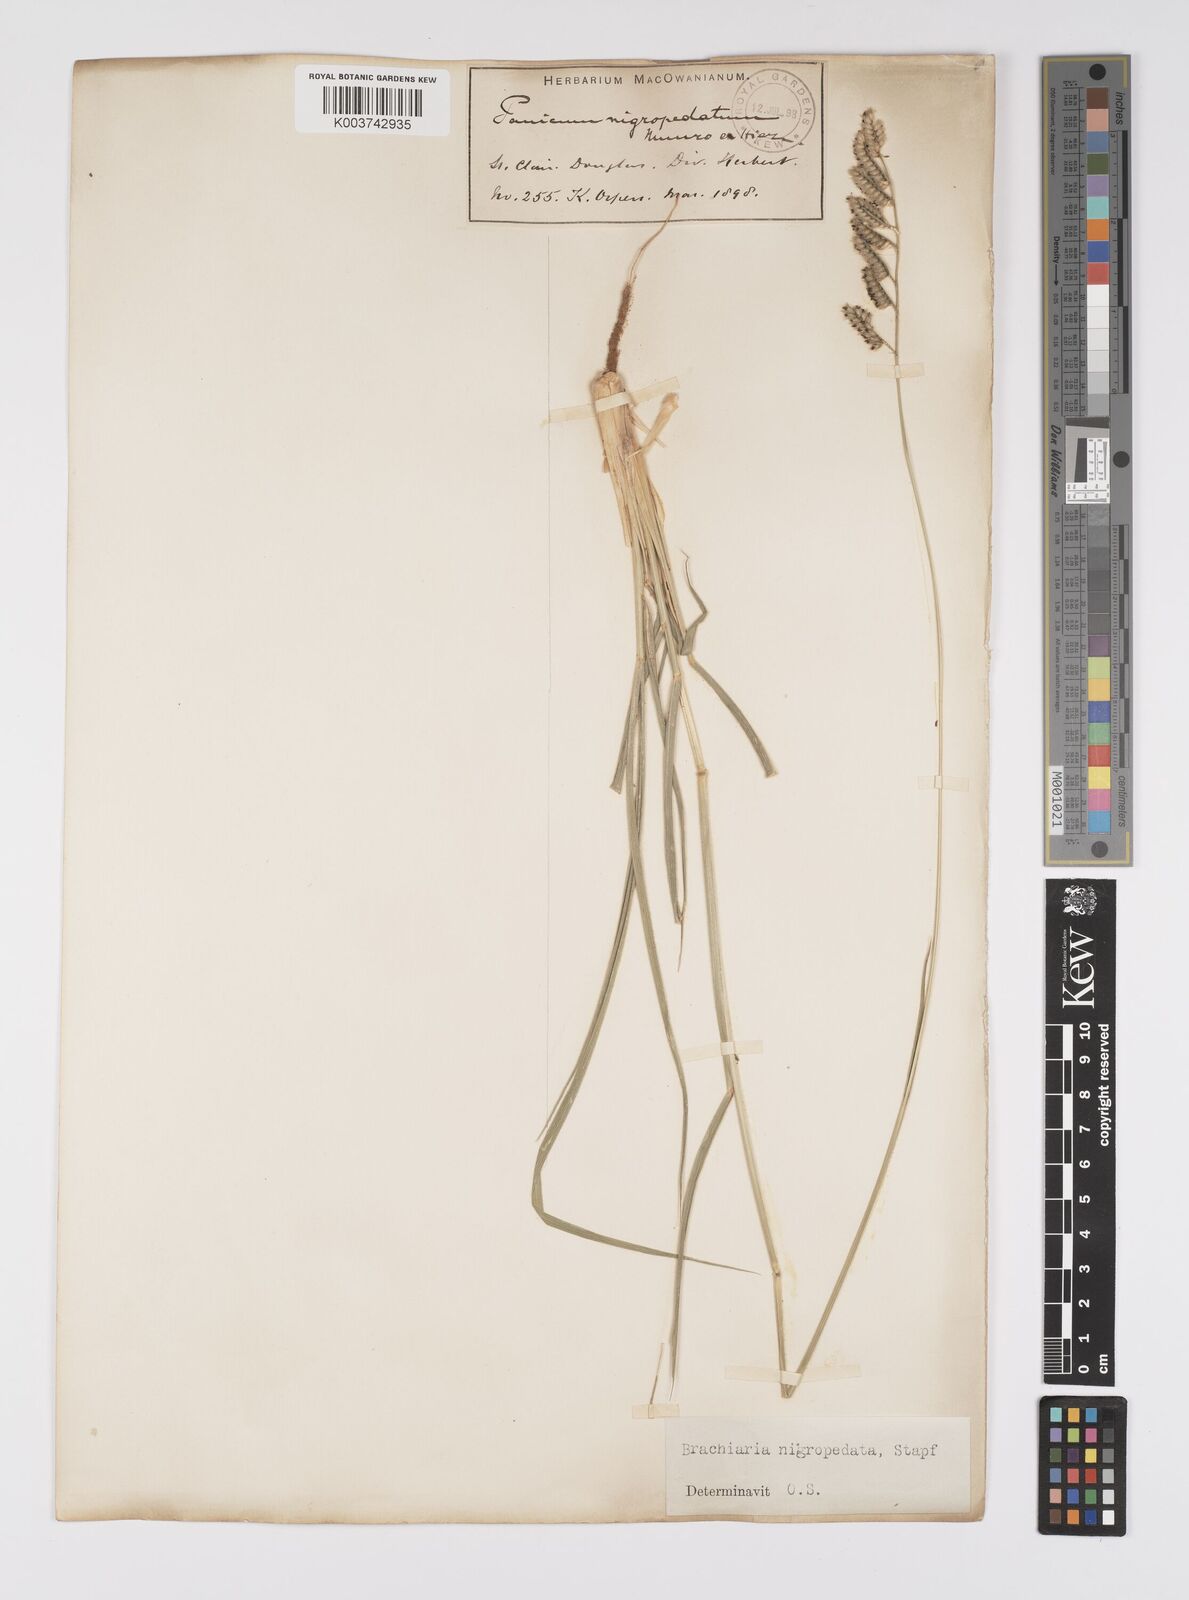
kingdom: Plantae
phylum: Tracheophyta
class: Liliopsida
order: Poales
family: Poaceae
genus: Urochloa
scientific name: Urochloa nigropedata
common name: Spotted signal grass
